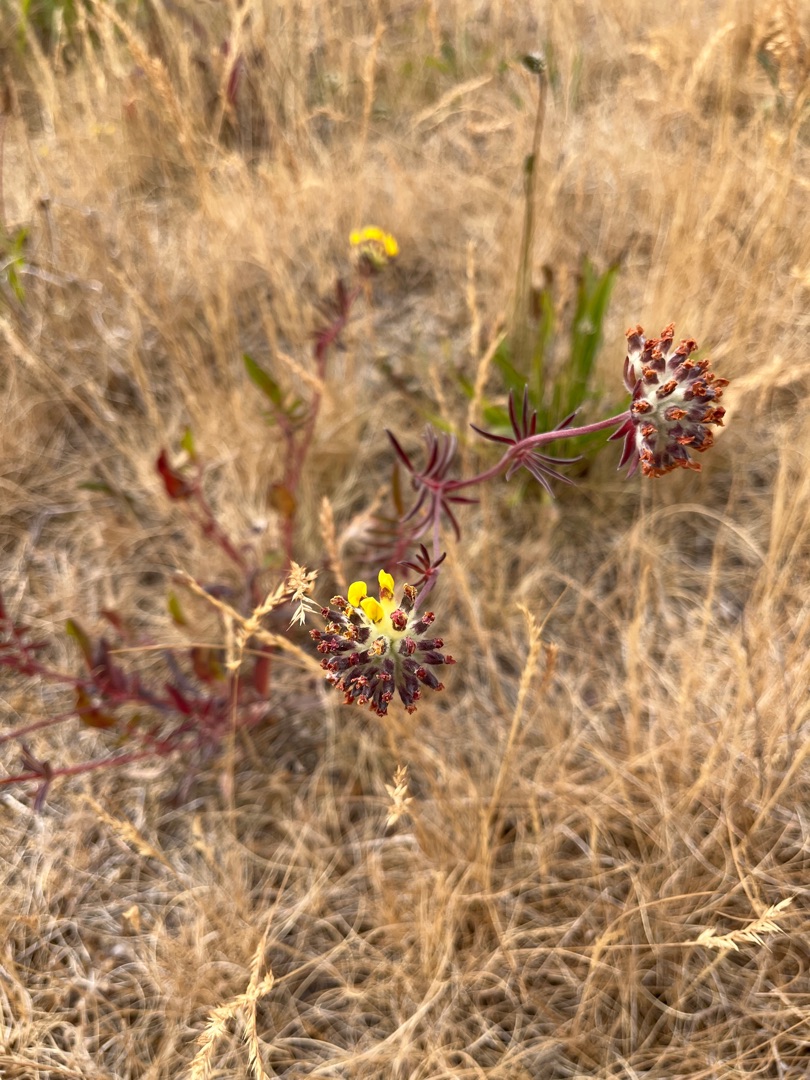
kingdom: Plantae
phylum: Tracheophyta
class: Magnoliopsida
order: Fabales
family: Fabaceae
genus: Anthyllis
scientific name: Anthyllis vulneraria
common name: Rundbælg
